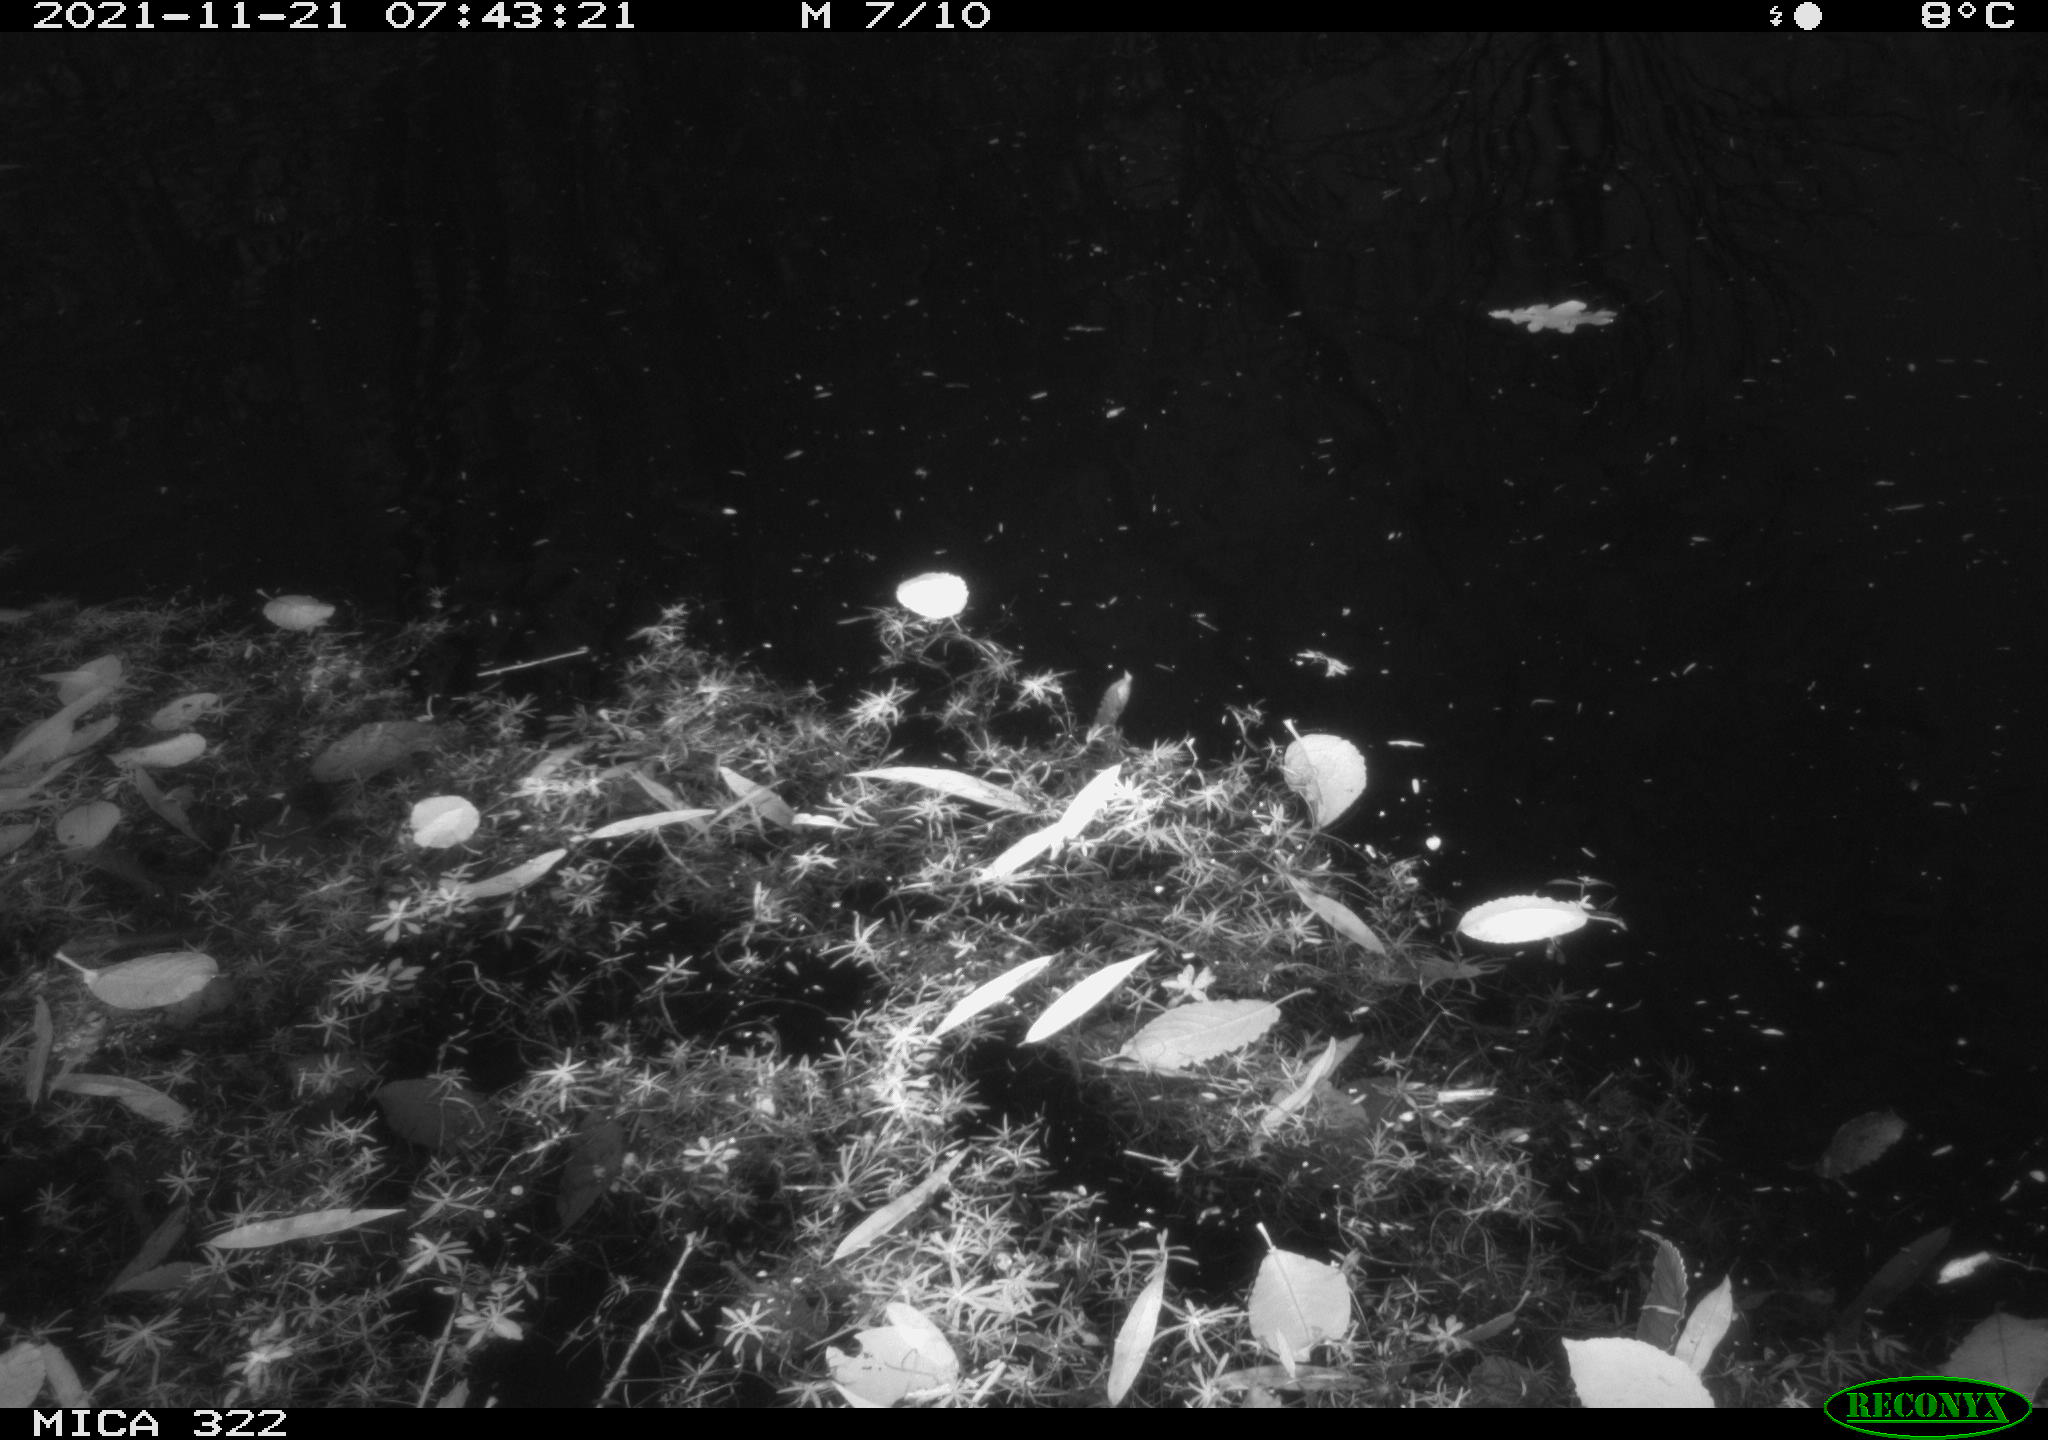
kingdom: Animalia
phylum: Chordata
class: Aves
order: Gruiformes
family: Rallidae
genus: Gallinula
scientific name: Gallinula chloropus
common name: Common moorhen
